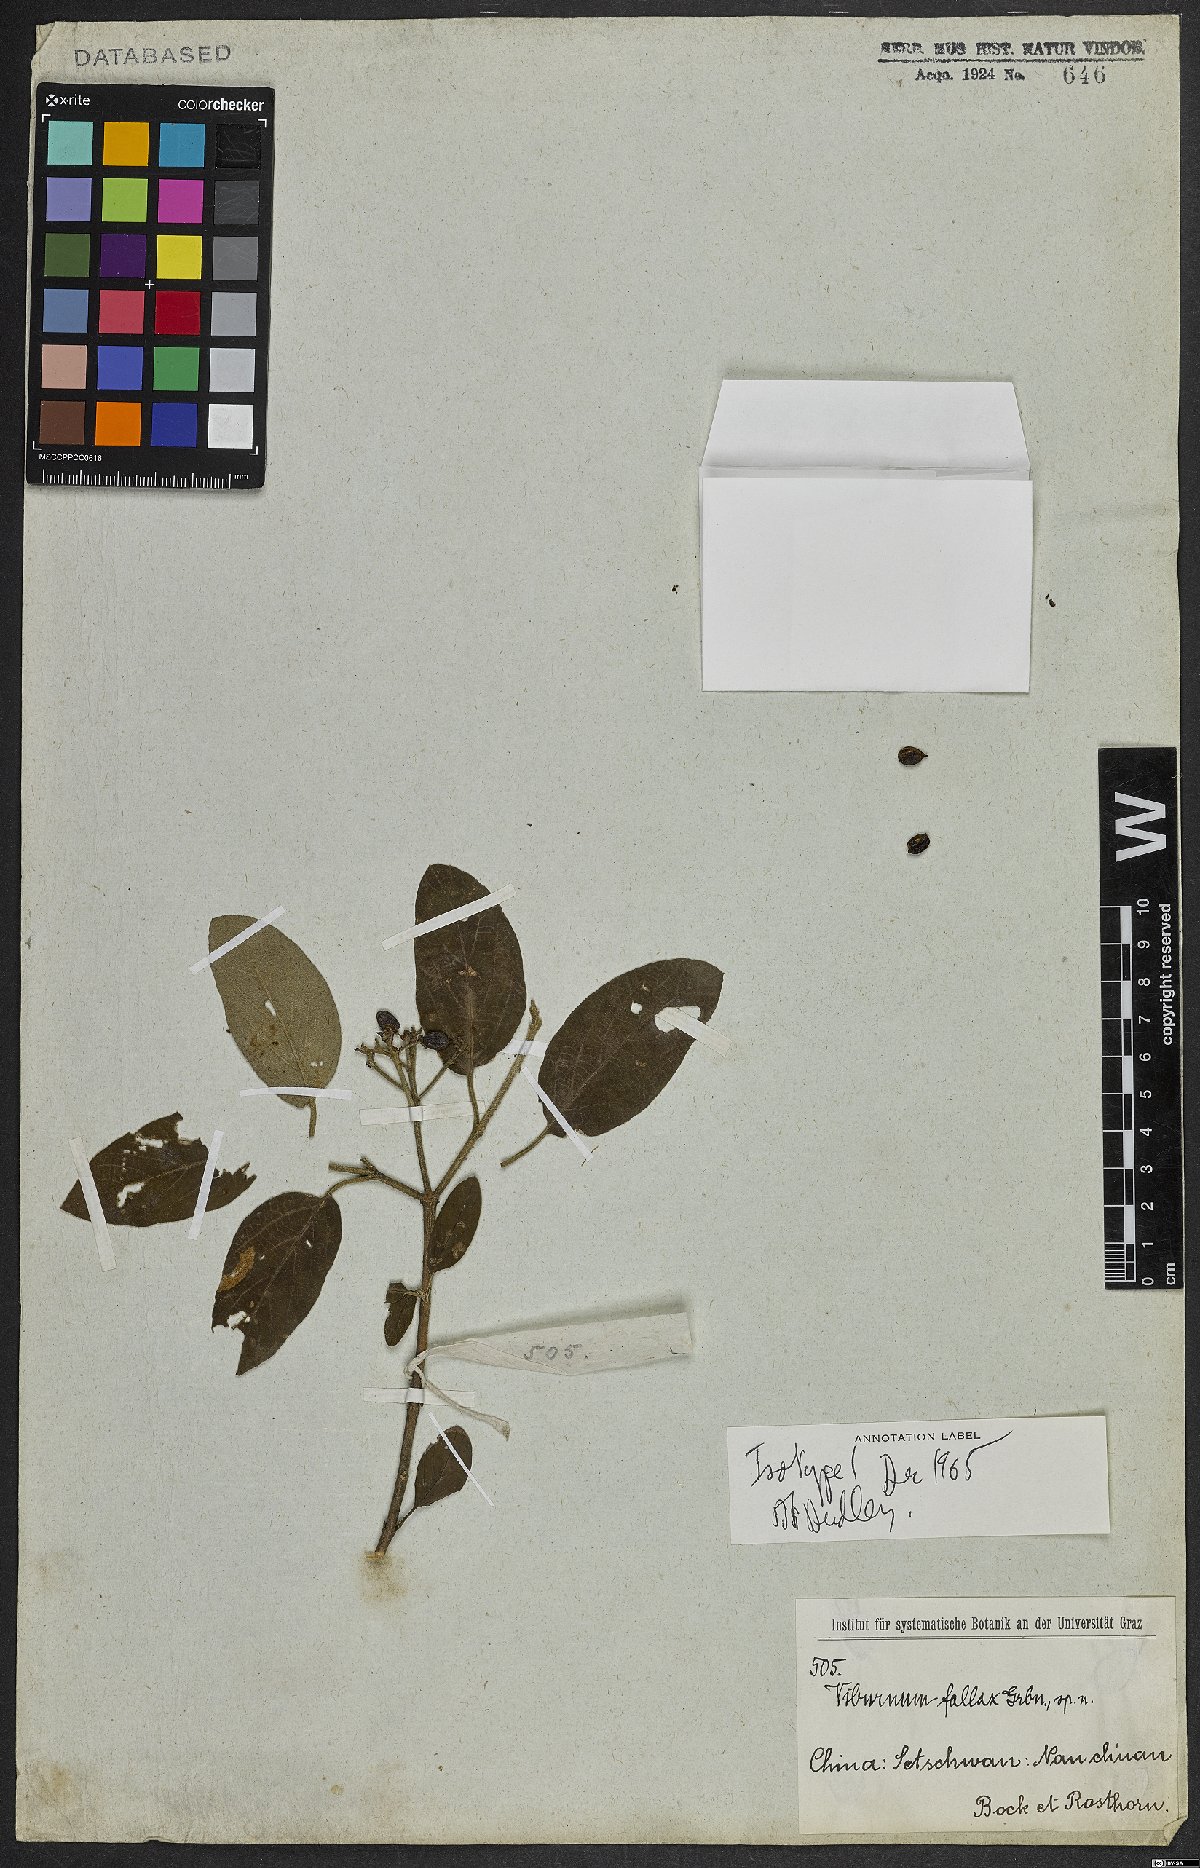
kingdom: Plantae
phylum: Tracheophyta
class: Magnoliopsida
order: Dipsacales
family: Viburnaceae
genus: Viburnum
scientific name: Viburnum utile
